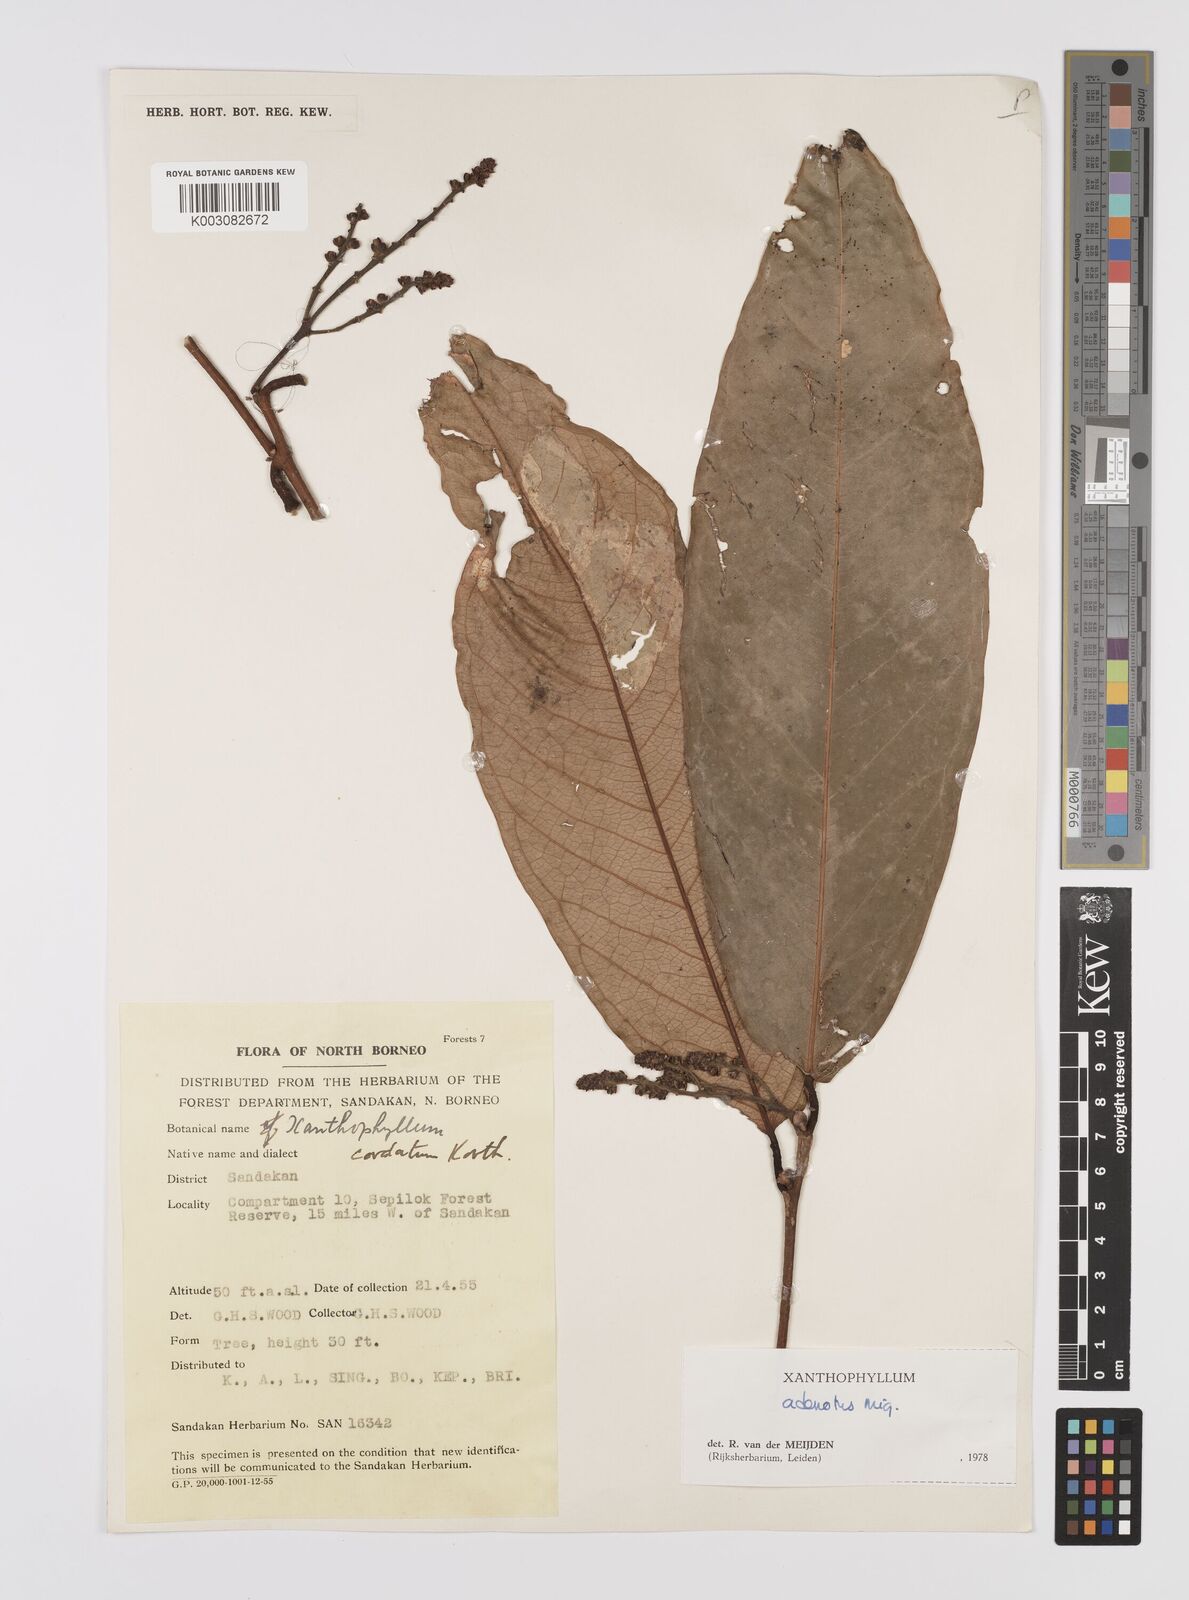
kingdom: Plantae
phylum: Tracheophyta
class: Magnoliopsida
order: Fabales
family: Polygalaceae
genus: Xanthophyllum
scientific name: Xanthophyllum adenotus
